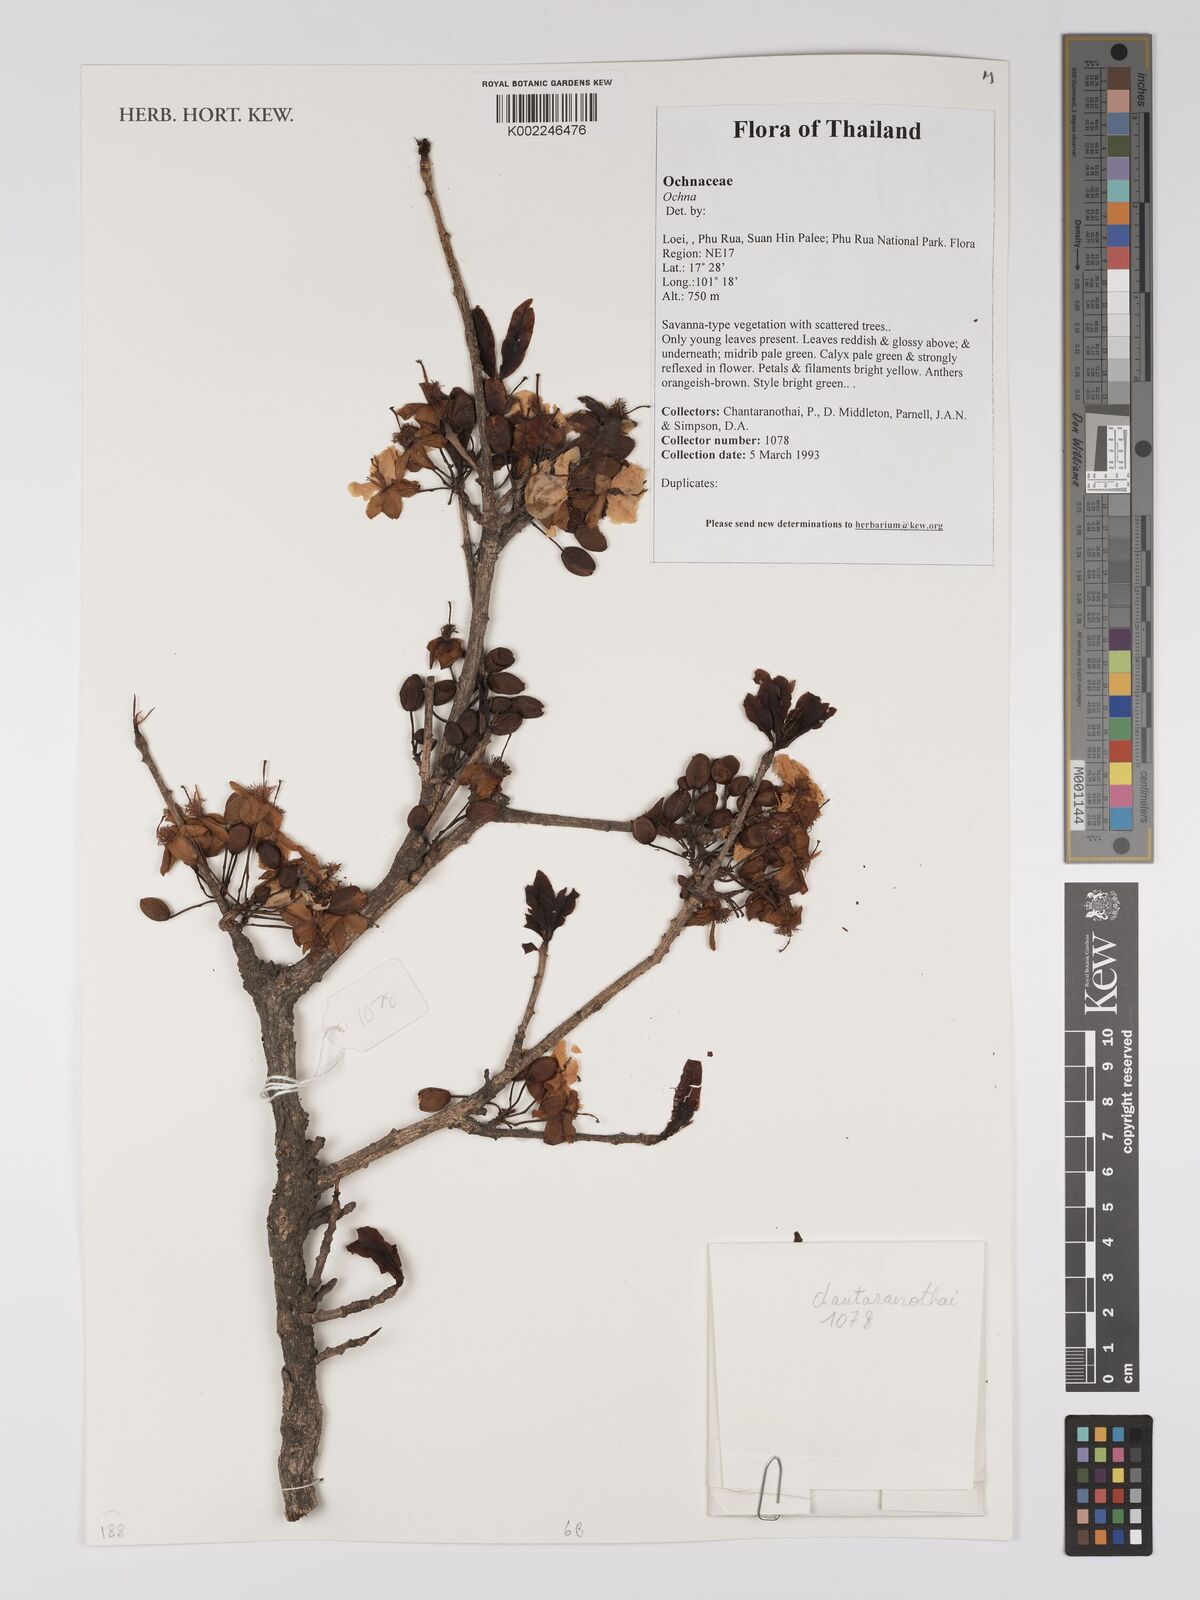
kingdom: Plantae
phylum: Tracheophyta
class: Magnoliopsida
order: Malpighiales
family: Ochnaceae
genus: Ochna
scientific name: Ochna
